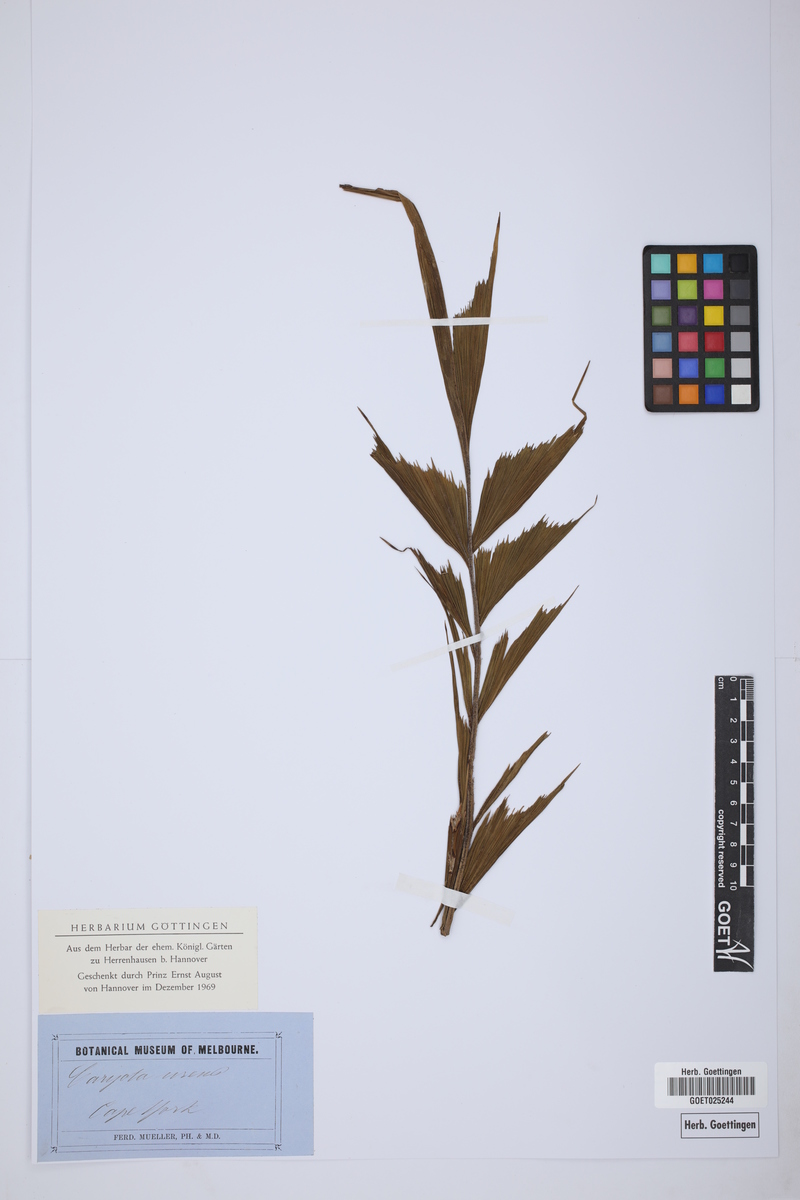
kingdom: Plantae
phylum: Tracheophyta
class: Liliopsida
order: Arecales
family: Arecaceae
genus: Caryota
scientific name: Caryota urens
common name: Jaggery palm
